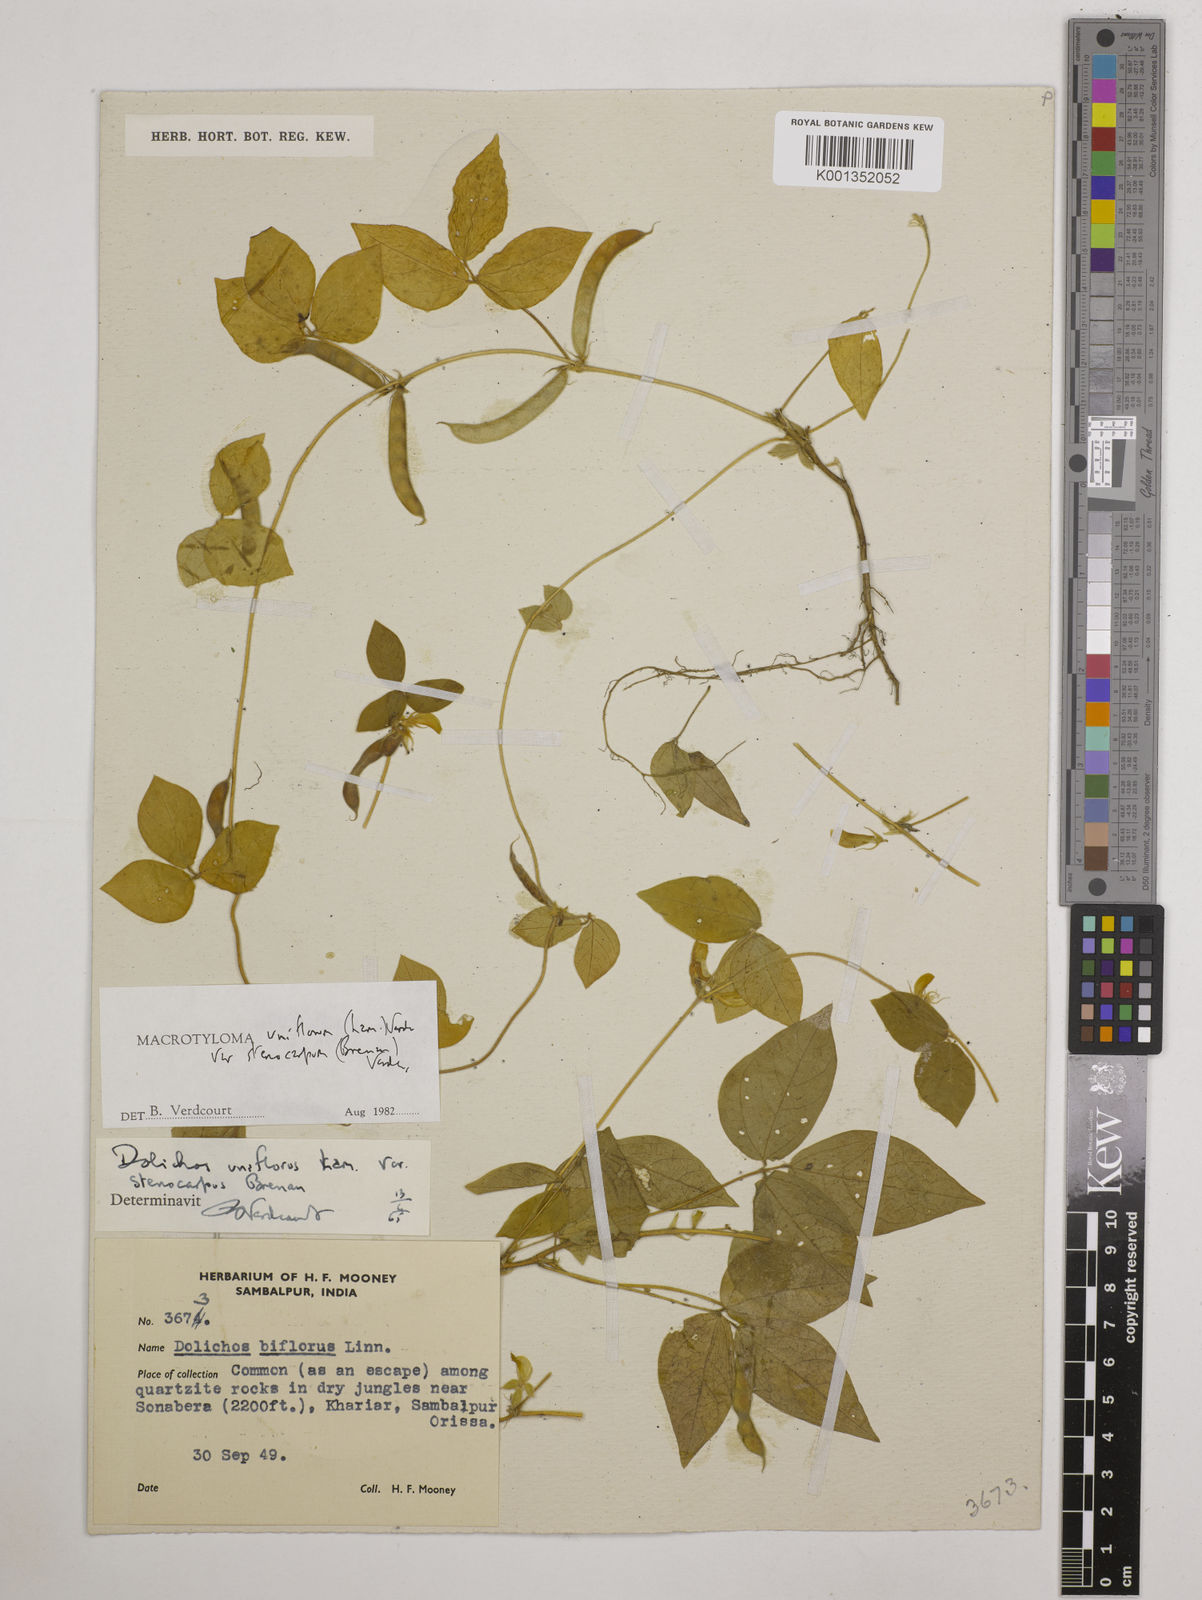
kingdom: Plantae
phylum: Tracheophyta
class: Magnoliopsida
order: Fabales
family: Fabaceae
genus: Macrotyloma
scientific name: Macrotyloma
